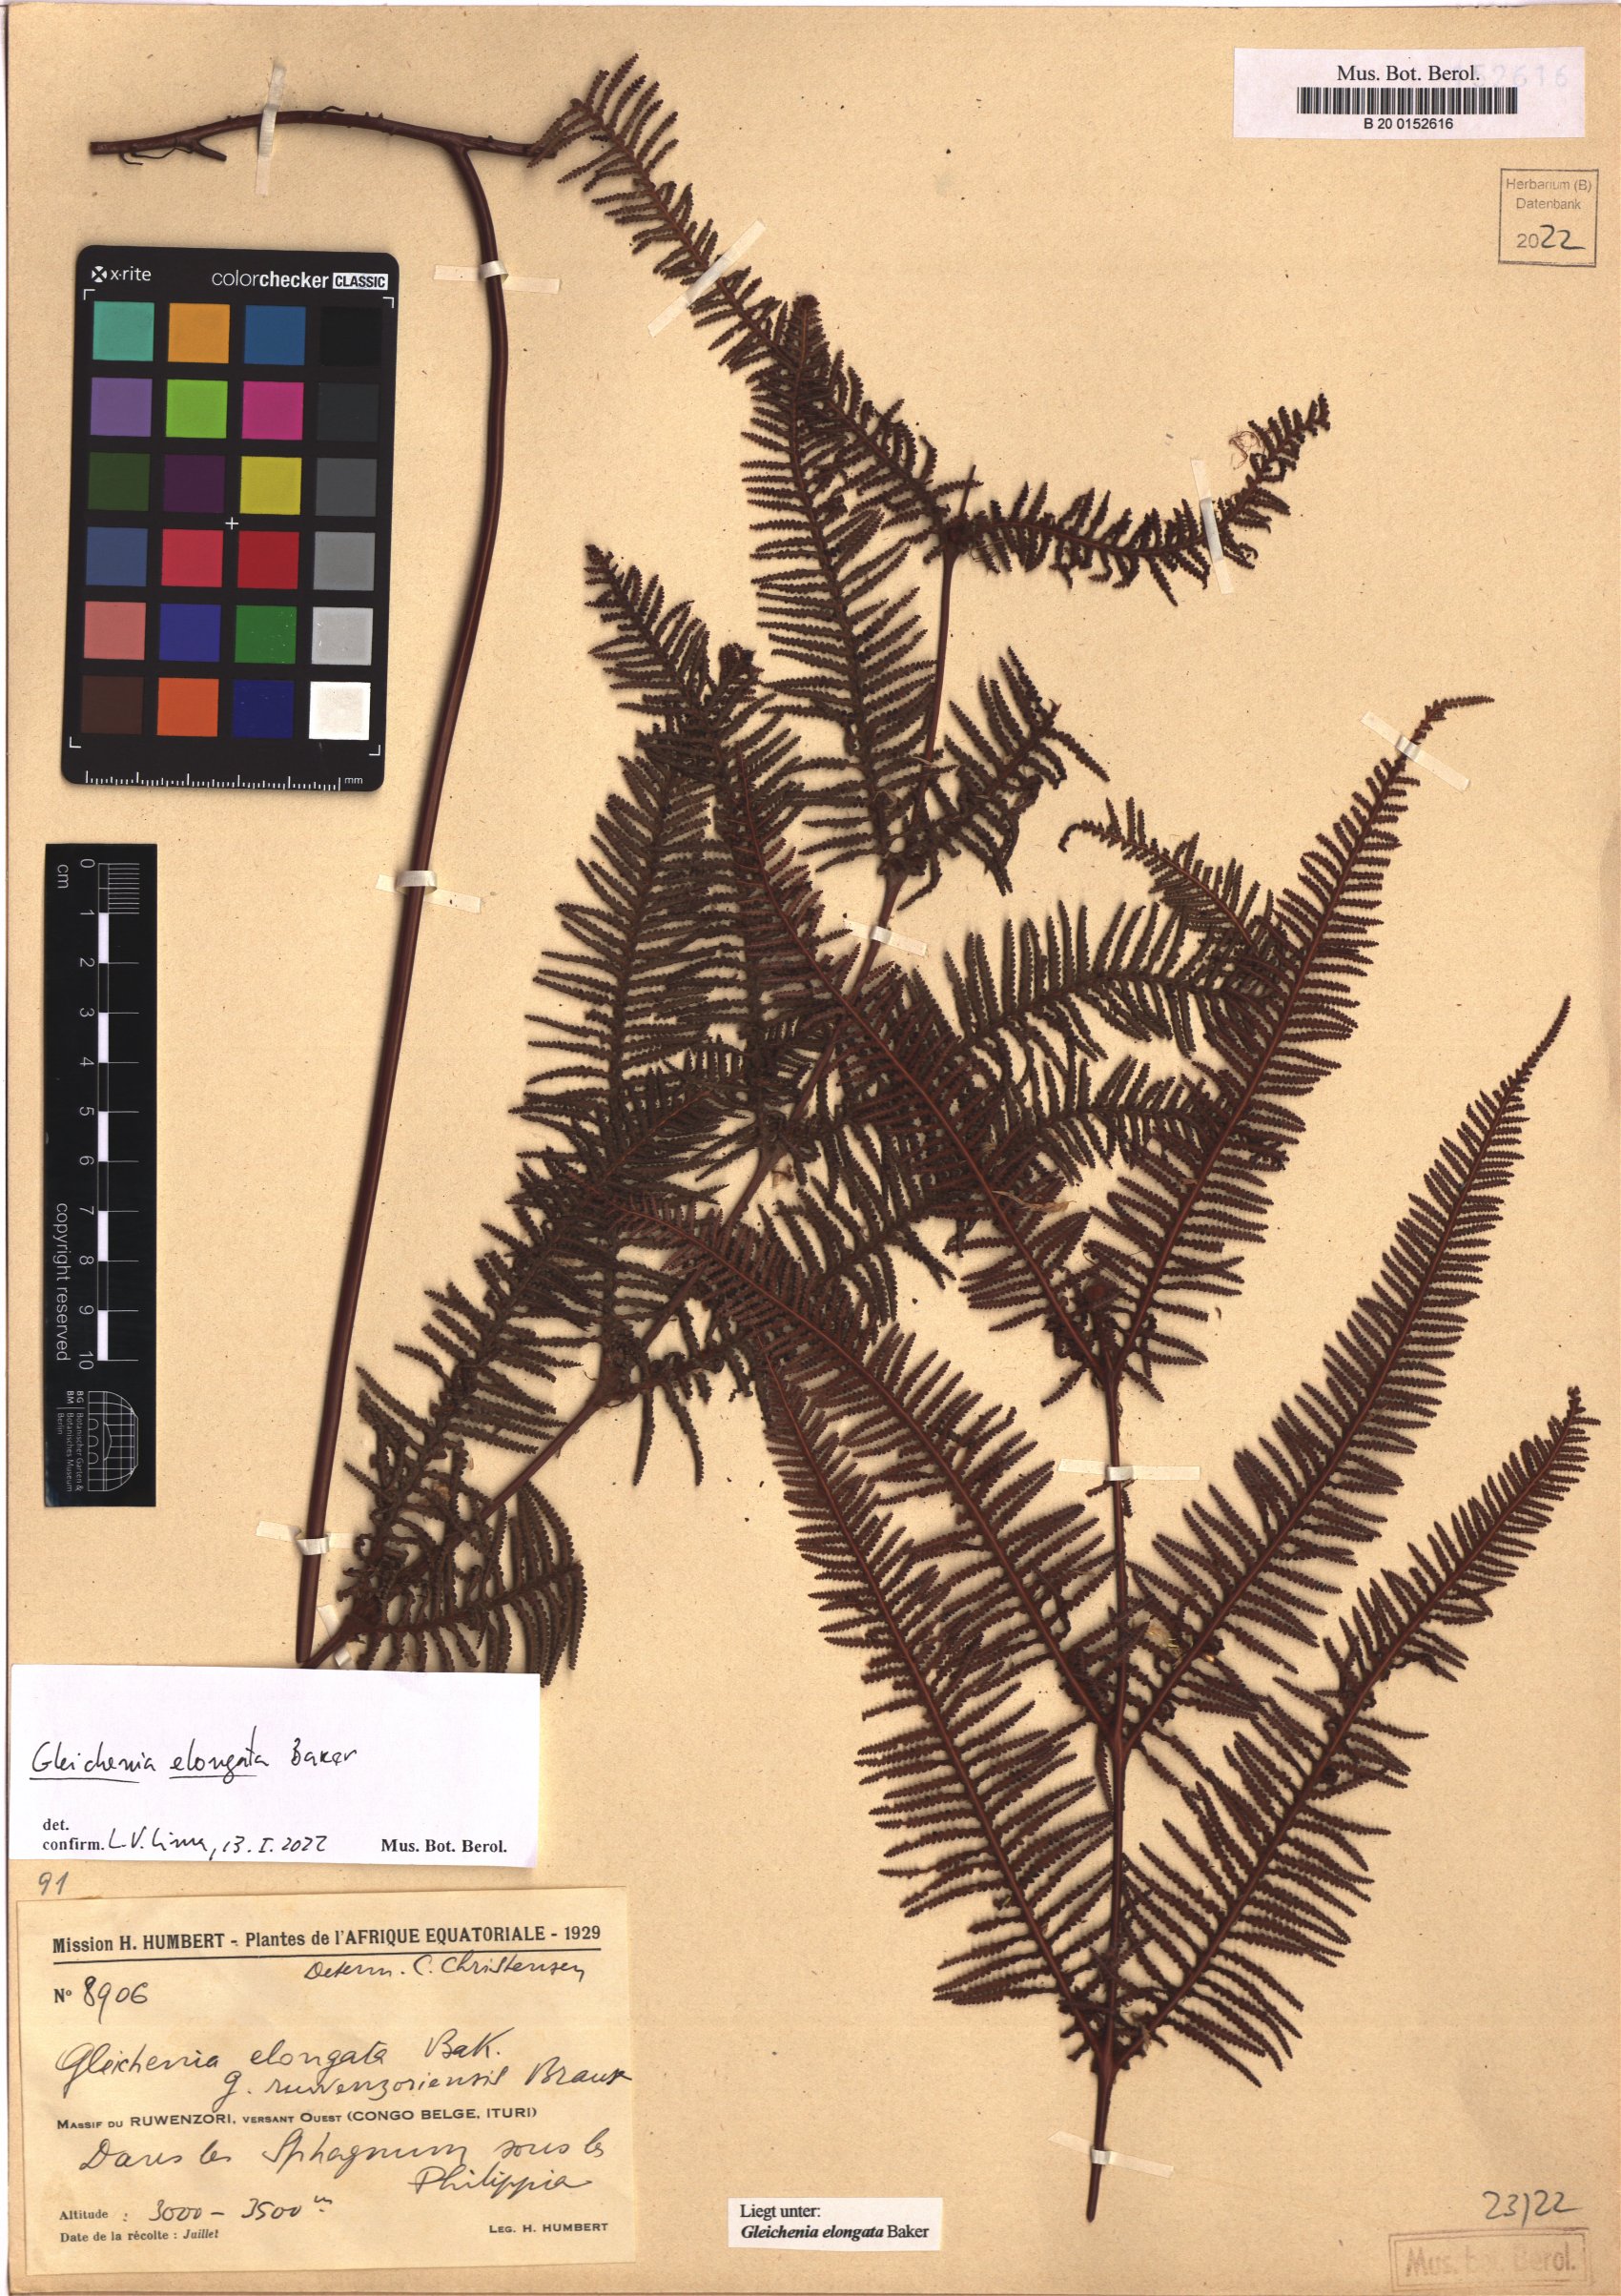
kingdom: Plantae
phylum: Tracheophyta
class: Polypodiopsida
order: Gleicheniales
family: Gleicheniaceae
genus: Gleichenia
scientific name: Gleichenia elongata
